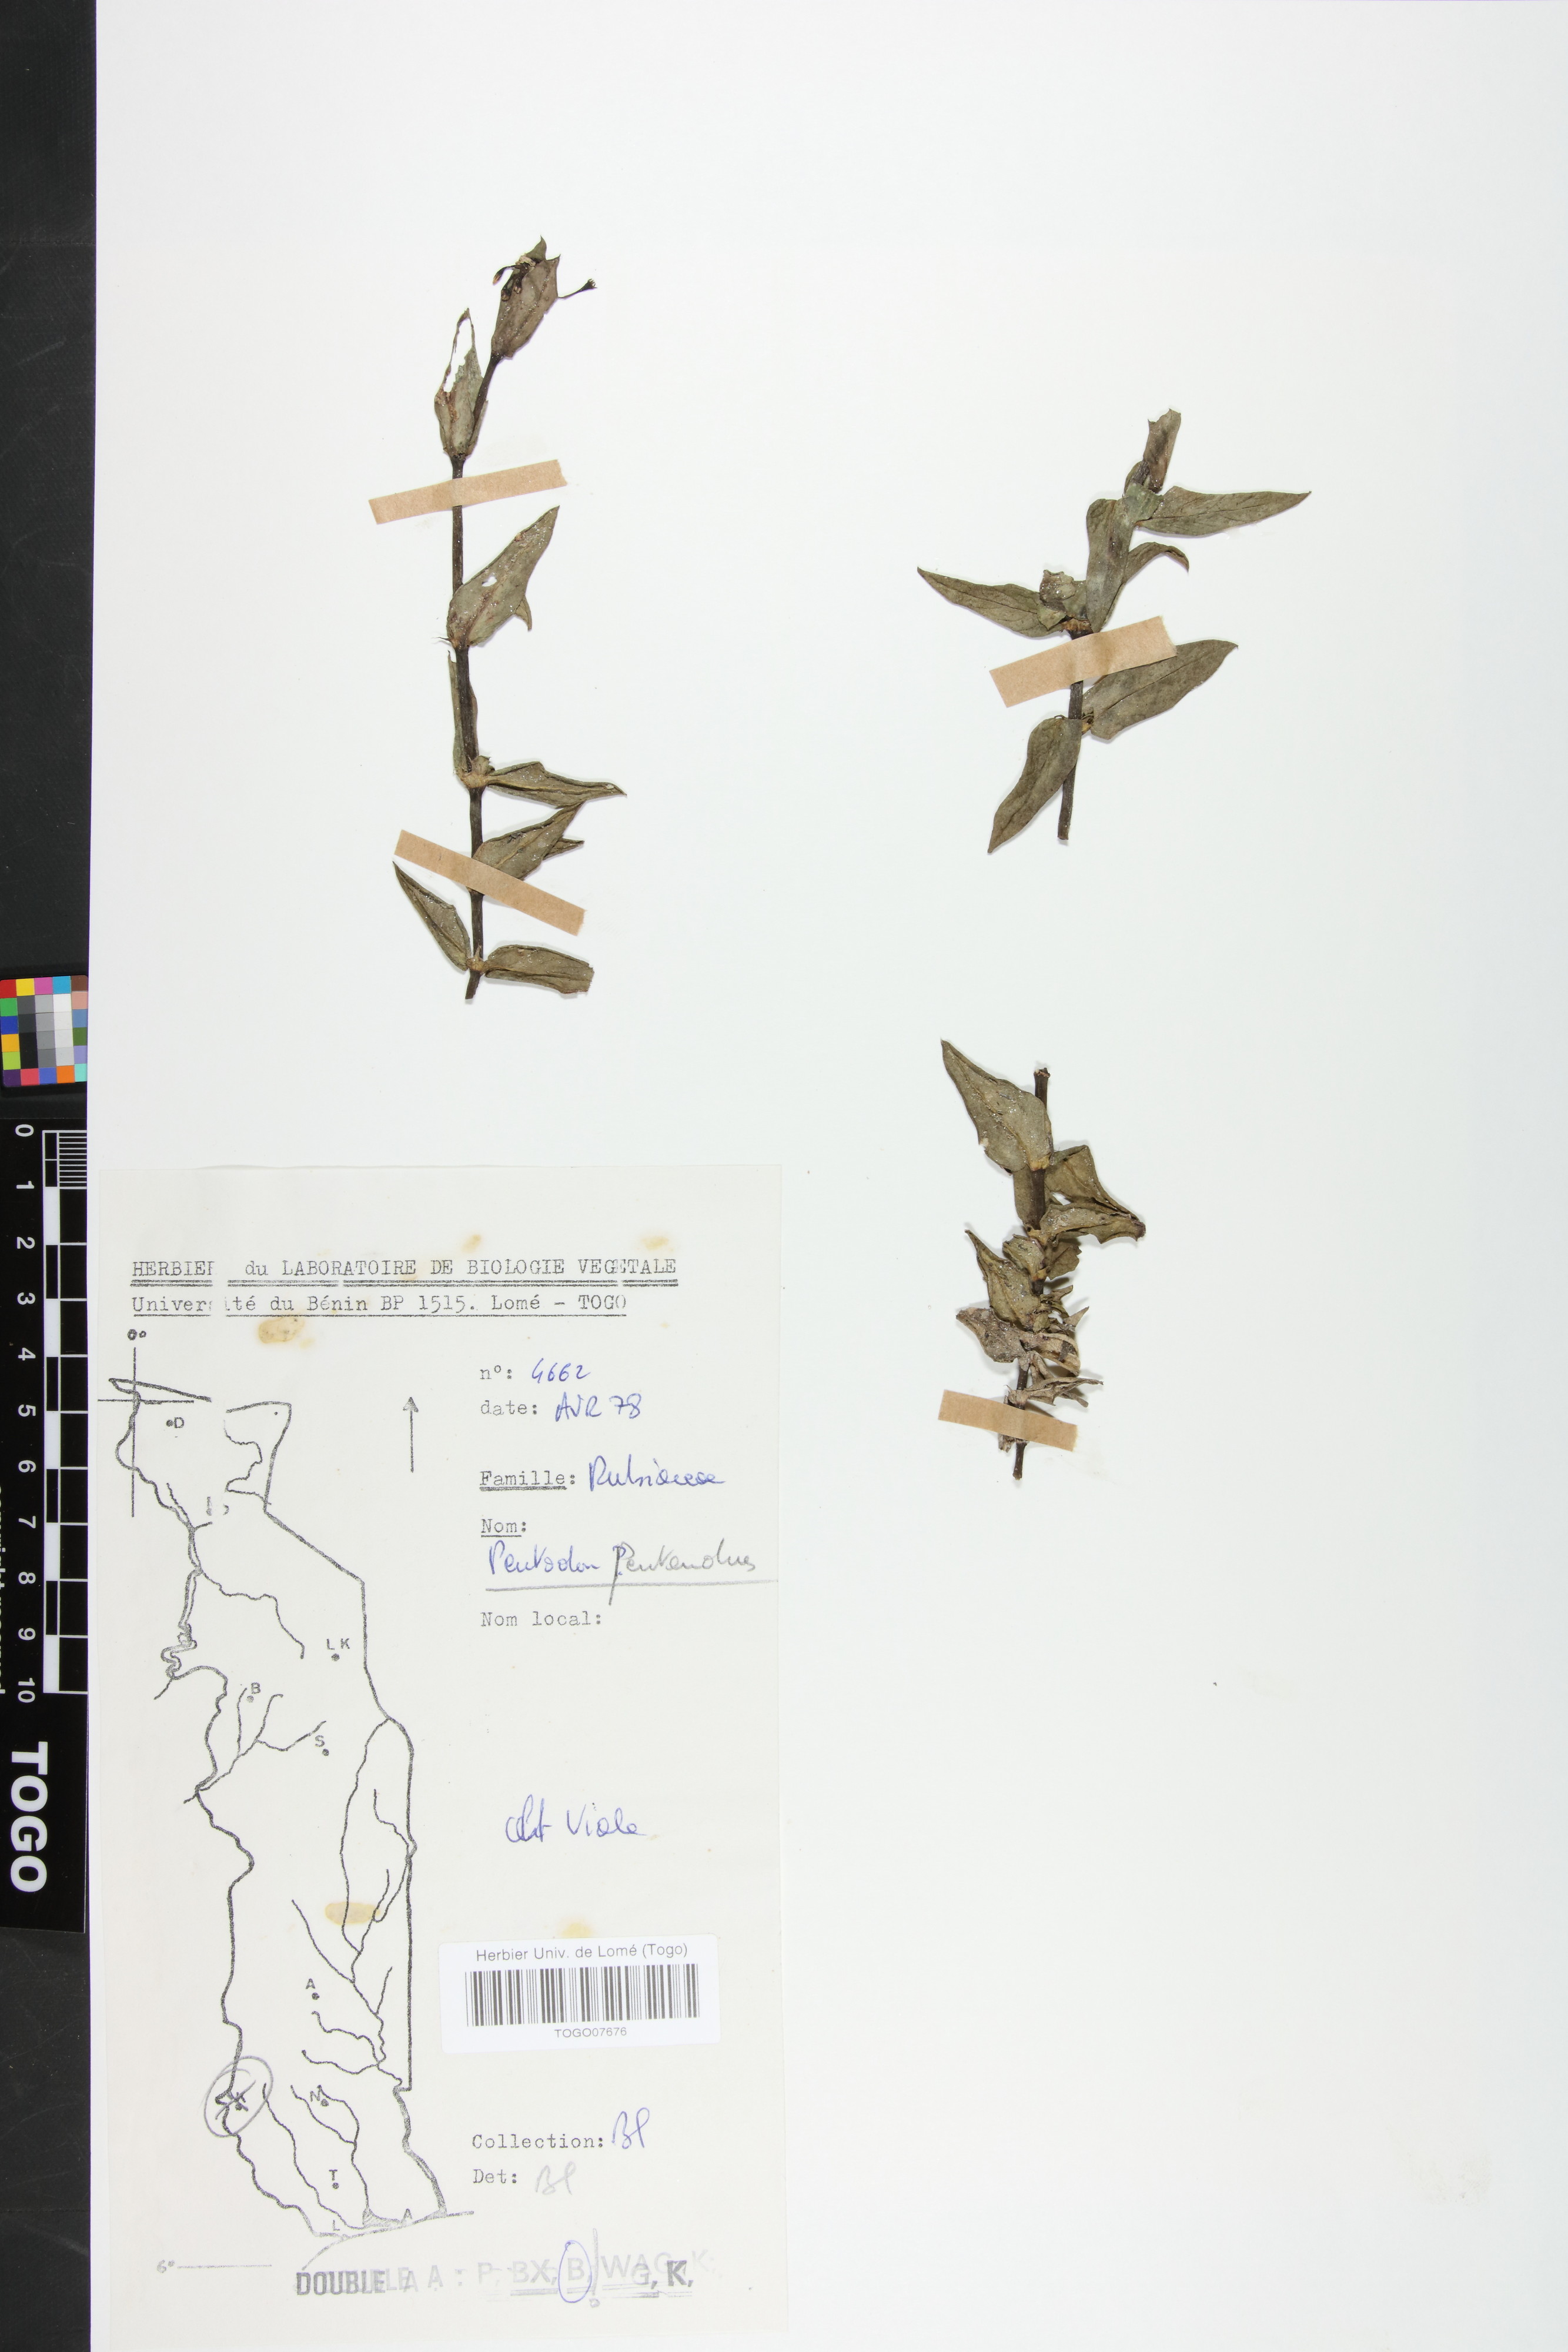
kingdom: Plantae
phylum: Tracheophyta
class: Magnoliopsida
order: Gentianales
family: Rubiaceae
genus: Pentodon
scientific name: Pentodon pentandrus
